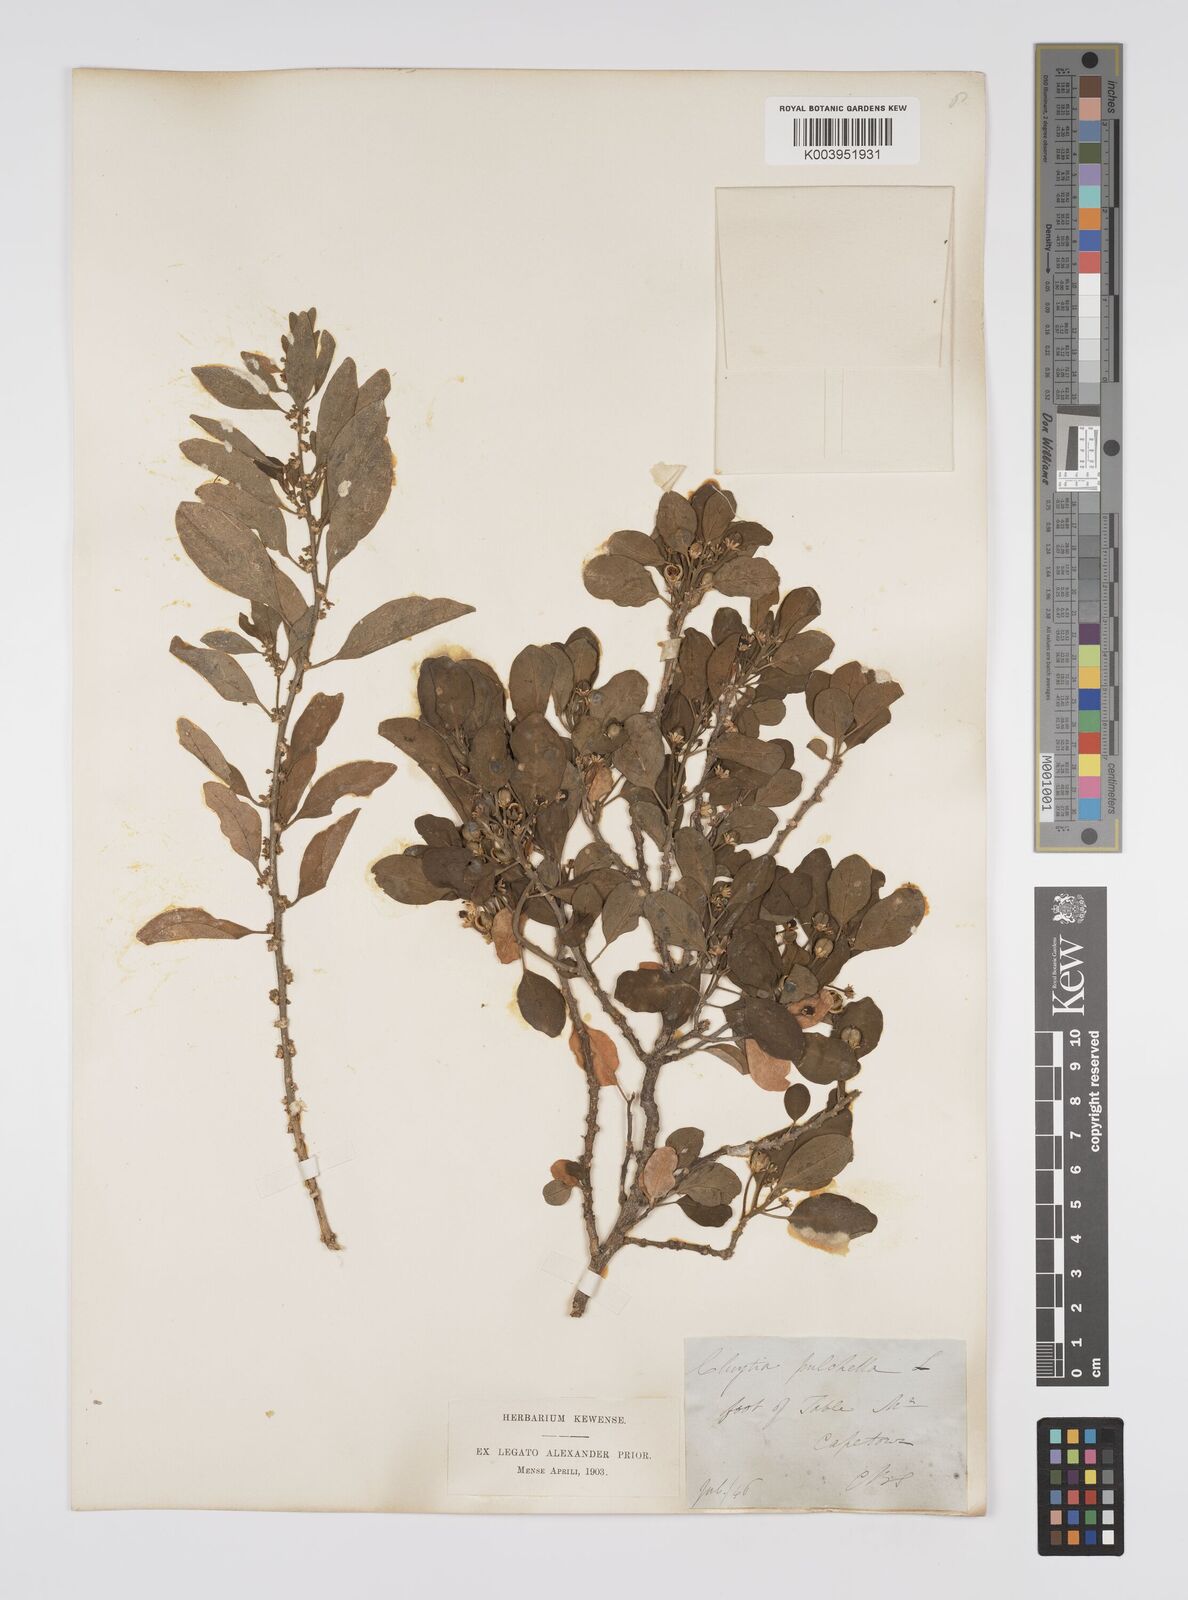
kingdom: Plantae
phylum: Tracheophyta
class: Magnoliopsida
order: Malpighiales
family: Peraceae
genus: Clutia
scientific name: Clutia pulchella
